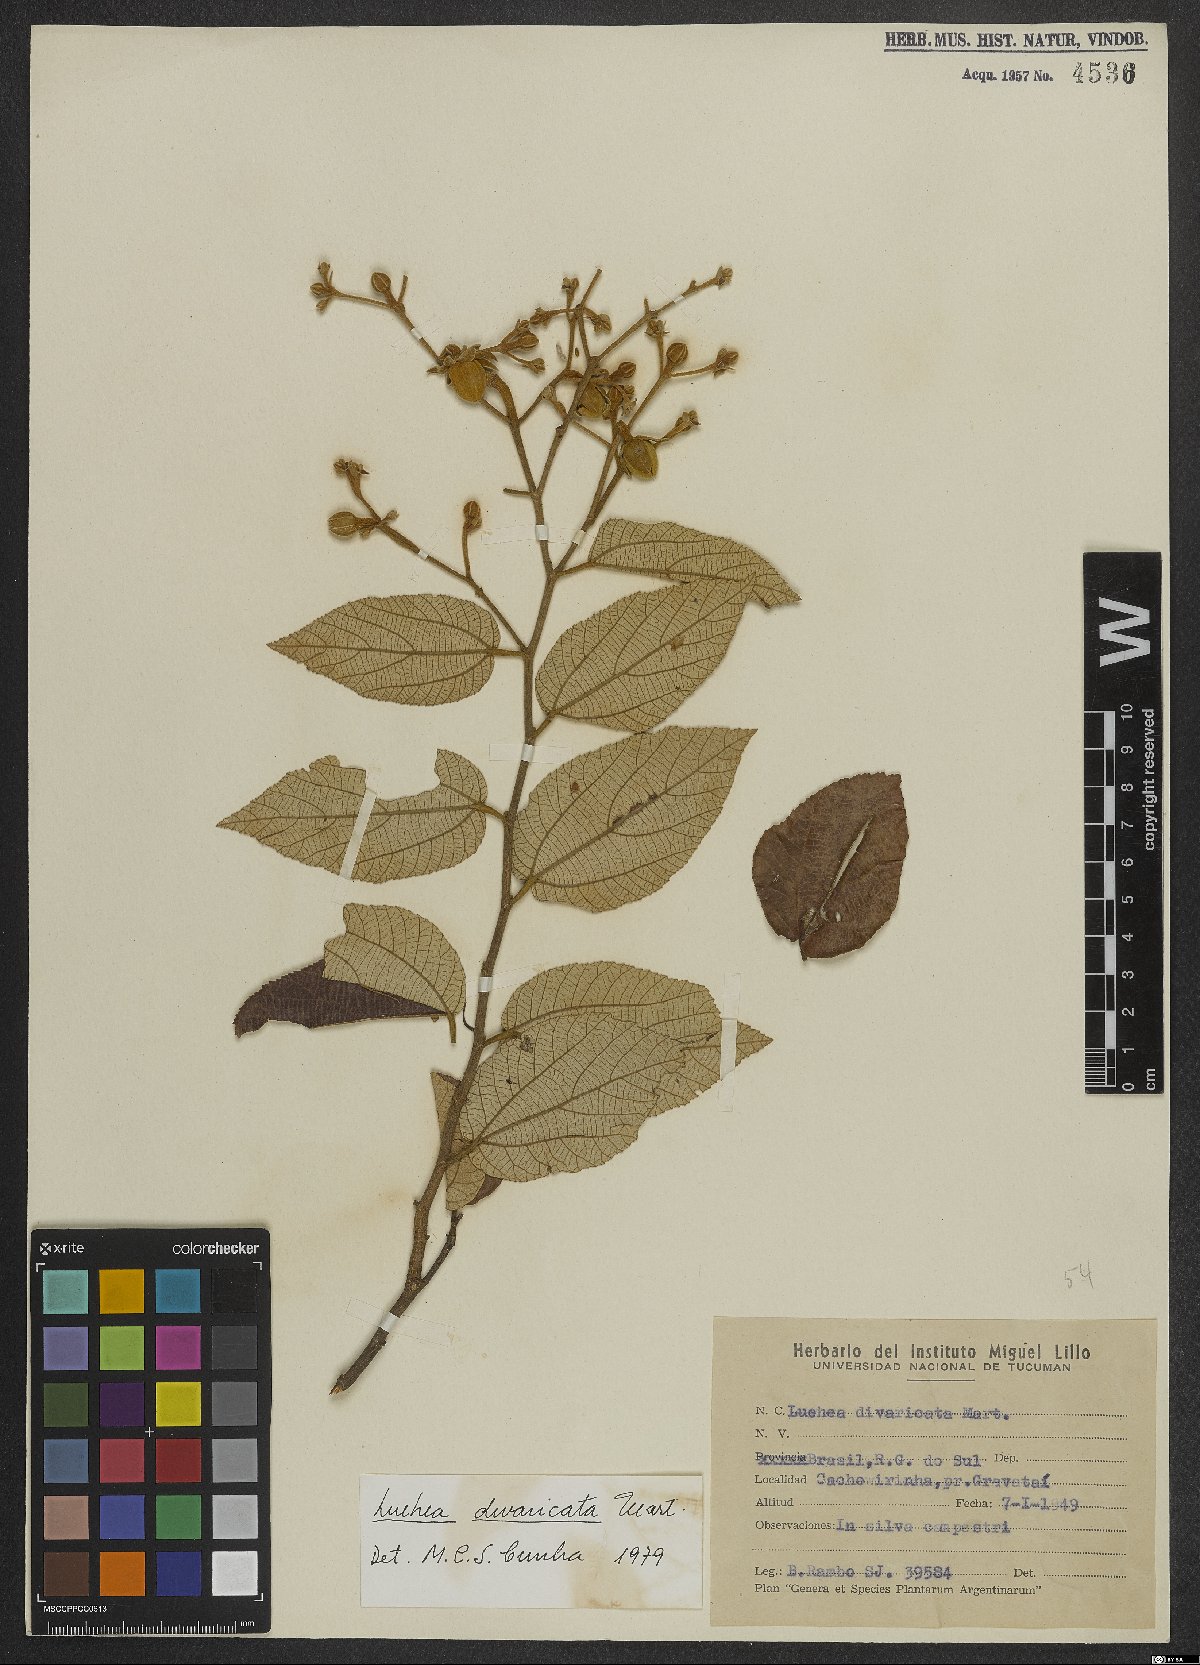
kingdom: Plantae
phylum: Tracheophyta
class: Magnoliopsida
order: Malvales
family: Malvaceae
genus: Luehea
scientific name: Luehea divaricata
